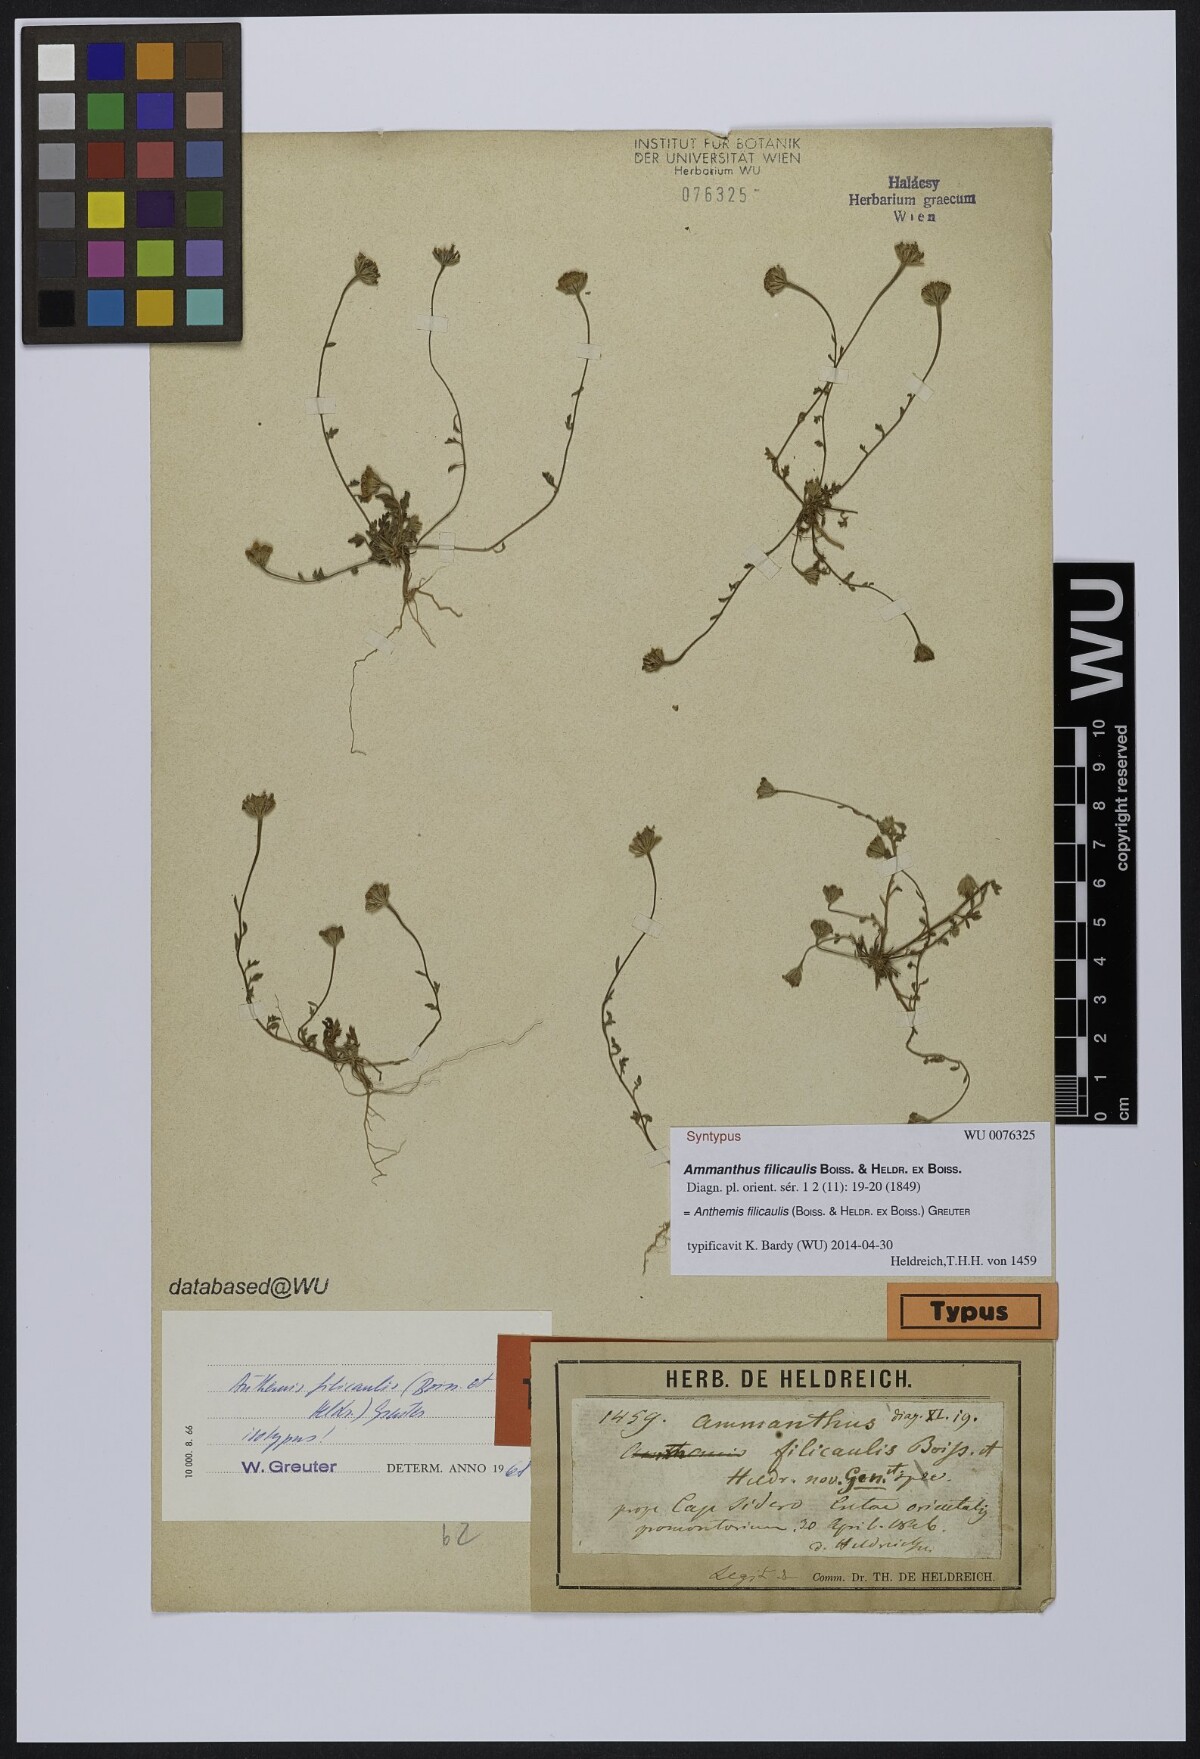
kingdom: Plantae
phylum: Tracheophyta
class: Magnoliopsida
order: Asterales
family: Asteraceae
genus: Anthemis
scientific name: Anthemis filicaulis
